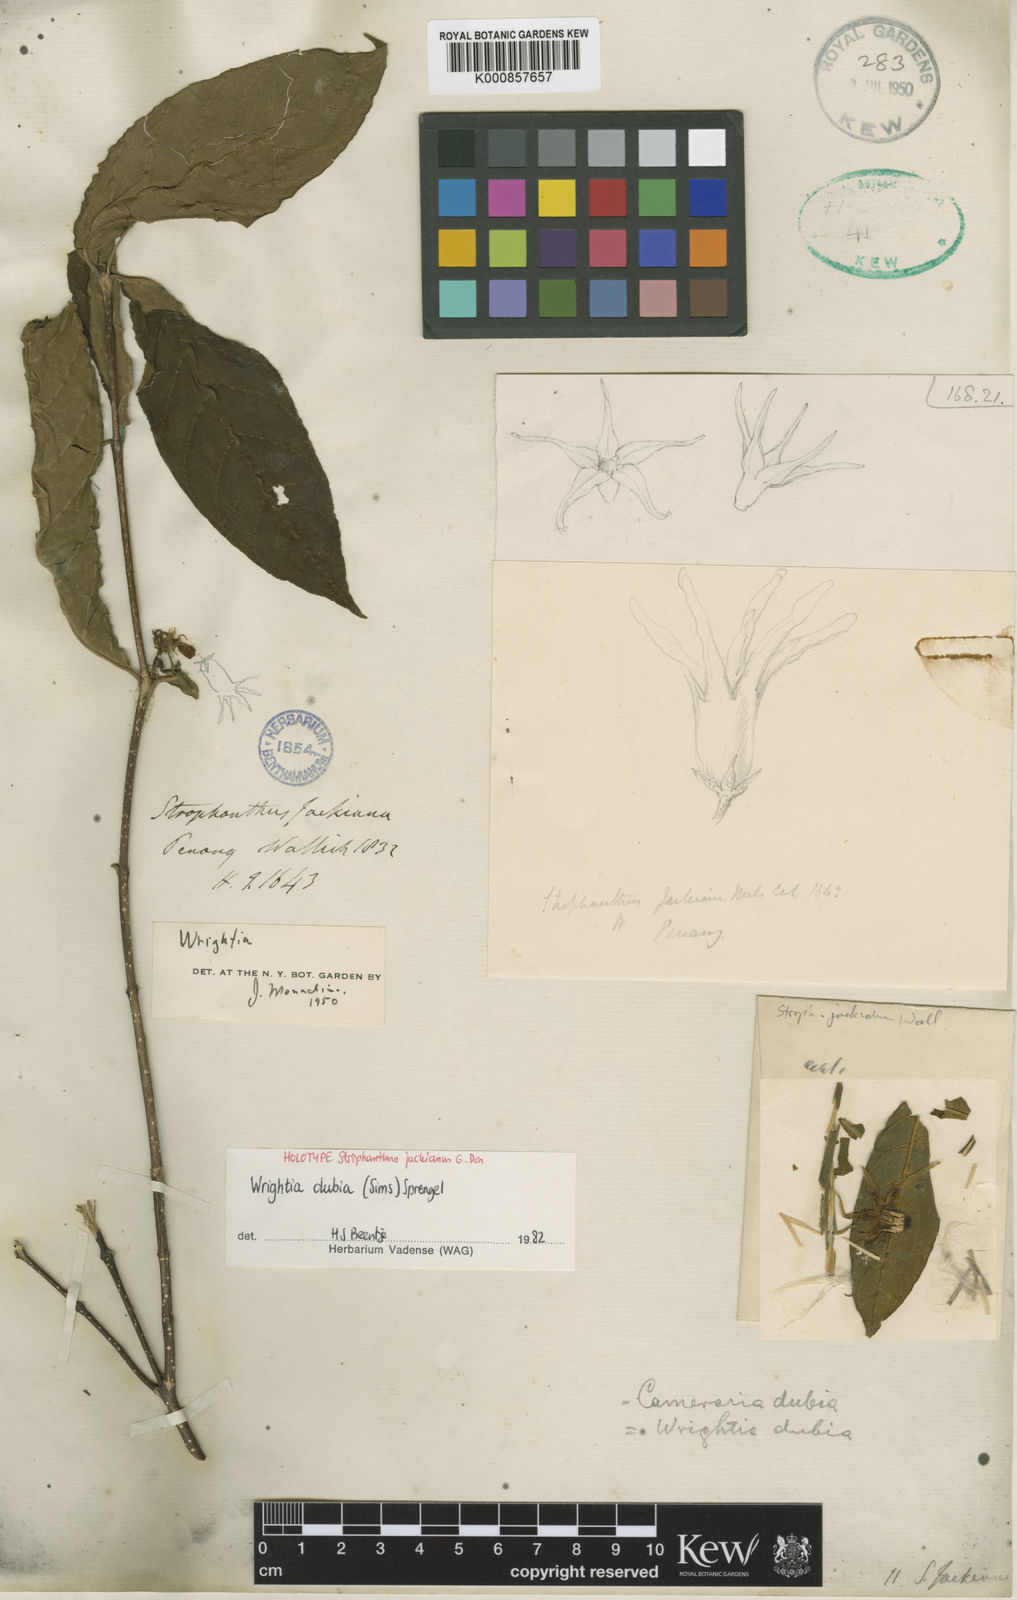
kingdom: Plantae
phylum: Tracheophyta
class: Magnoliopsida
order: Gentianales
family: Apocynaceae
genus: Wrightia
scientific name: Wrightia dubia
